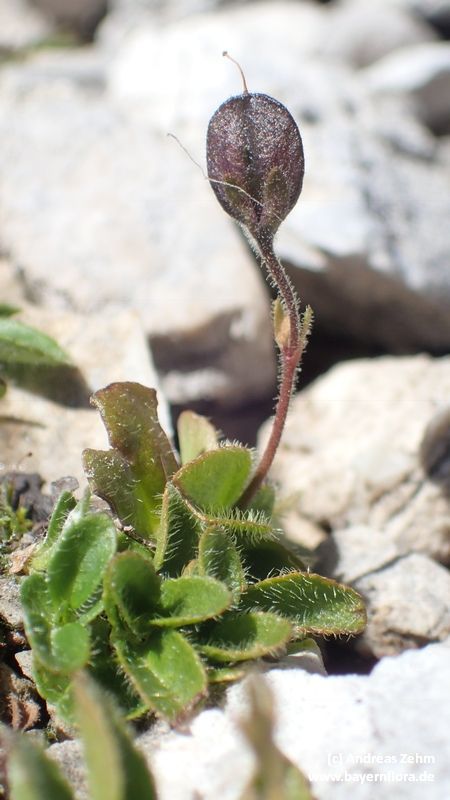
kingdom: Plantae
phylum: Tracheophyta
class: Magnoliopsida
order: Lamiales
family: Plantaginaceae
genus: Veronica
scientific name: Veronica aphylla
